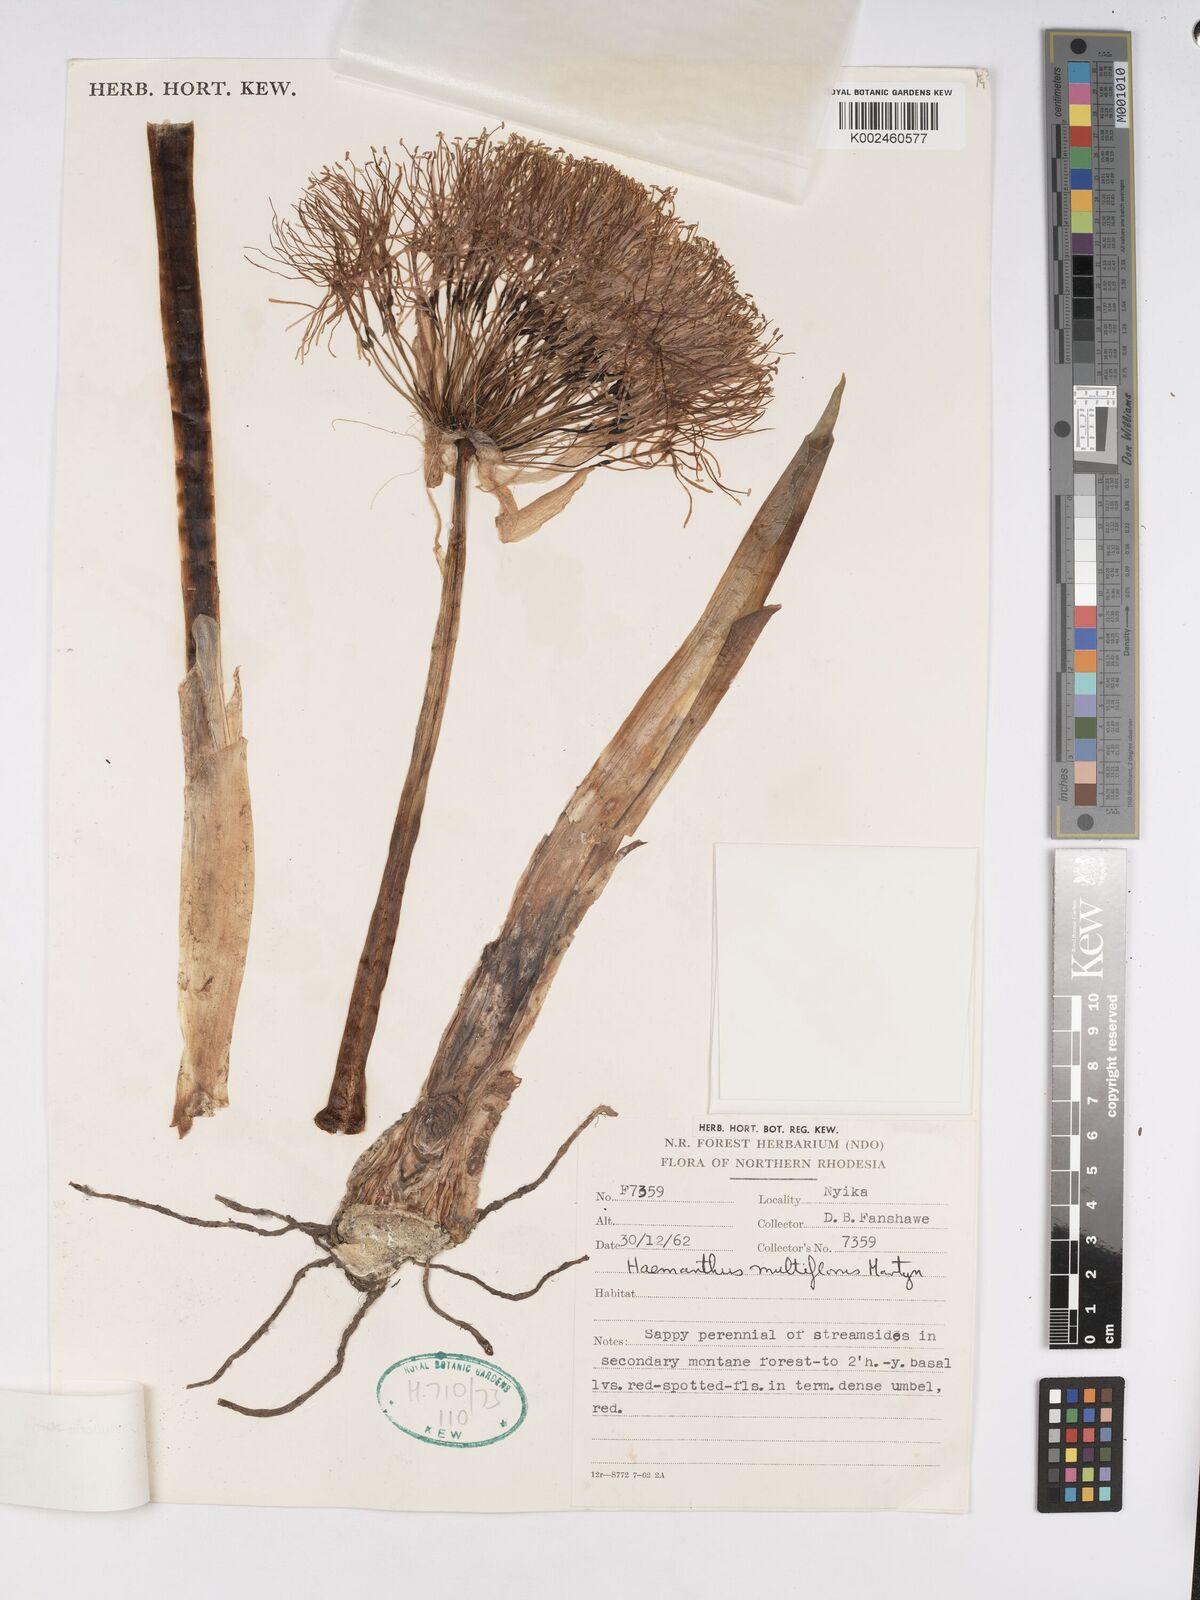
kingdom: Plantae
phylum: Tracheophyta
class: Liliopsida
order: Asparagales
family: Amaryllidaceae
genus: Scadoxus
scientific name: Scadoxus multiflorus
